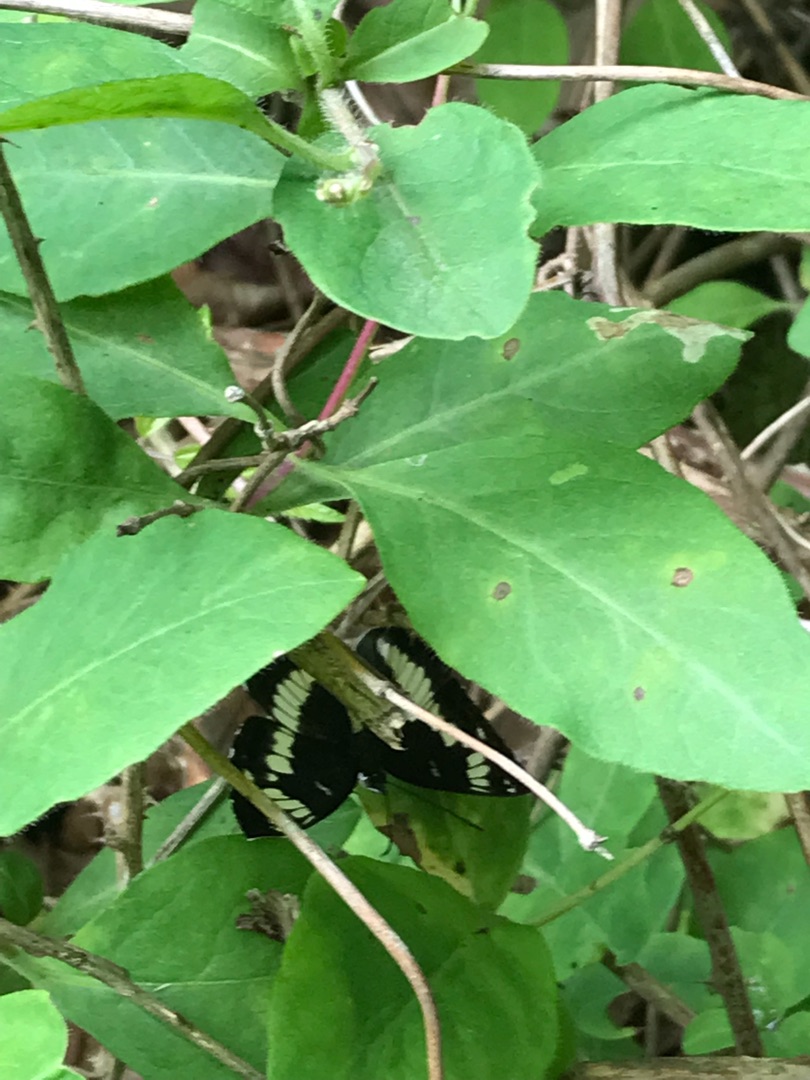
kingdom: Animalia
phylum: Arthropoda
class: Insecta
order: Lepidoptera
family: Nymphalidae
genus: Ladoga
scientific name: Ladoga camilla
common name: Hvid admiral
